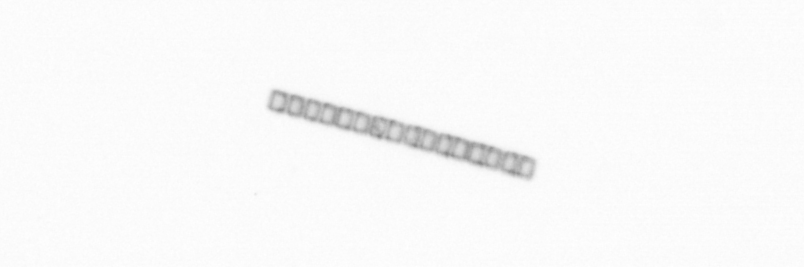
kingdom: Chromista
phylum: Ochrophyta
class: Bacillariophyceae
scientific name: Bacillariophyceae
